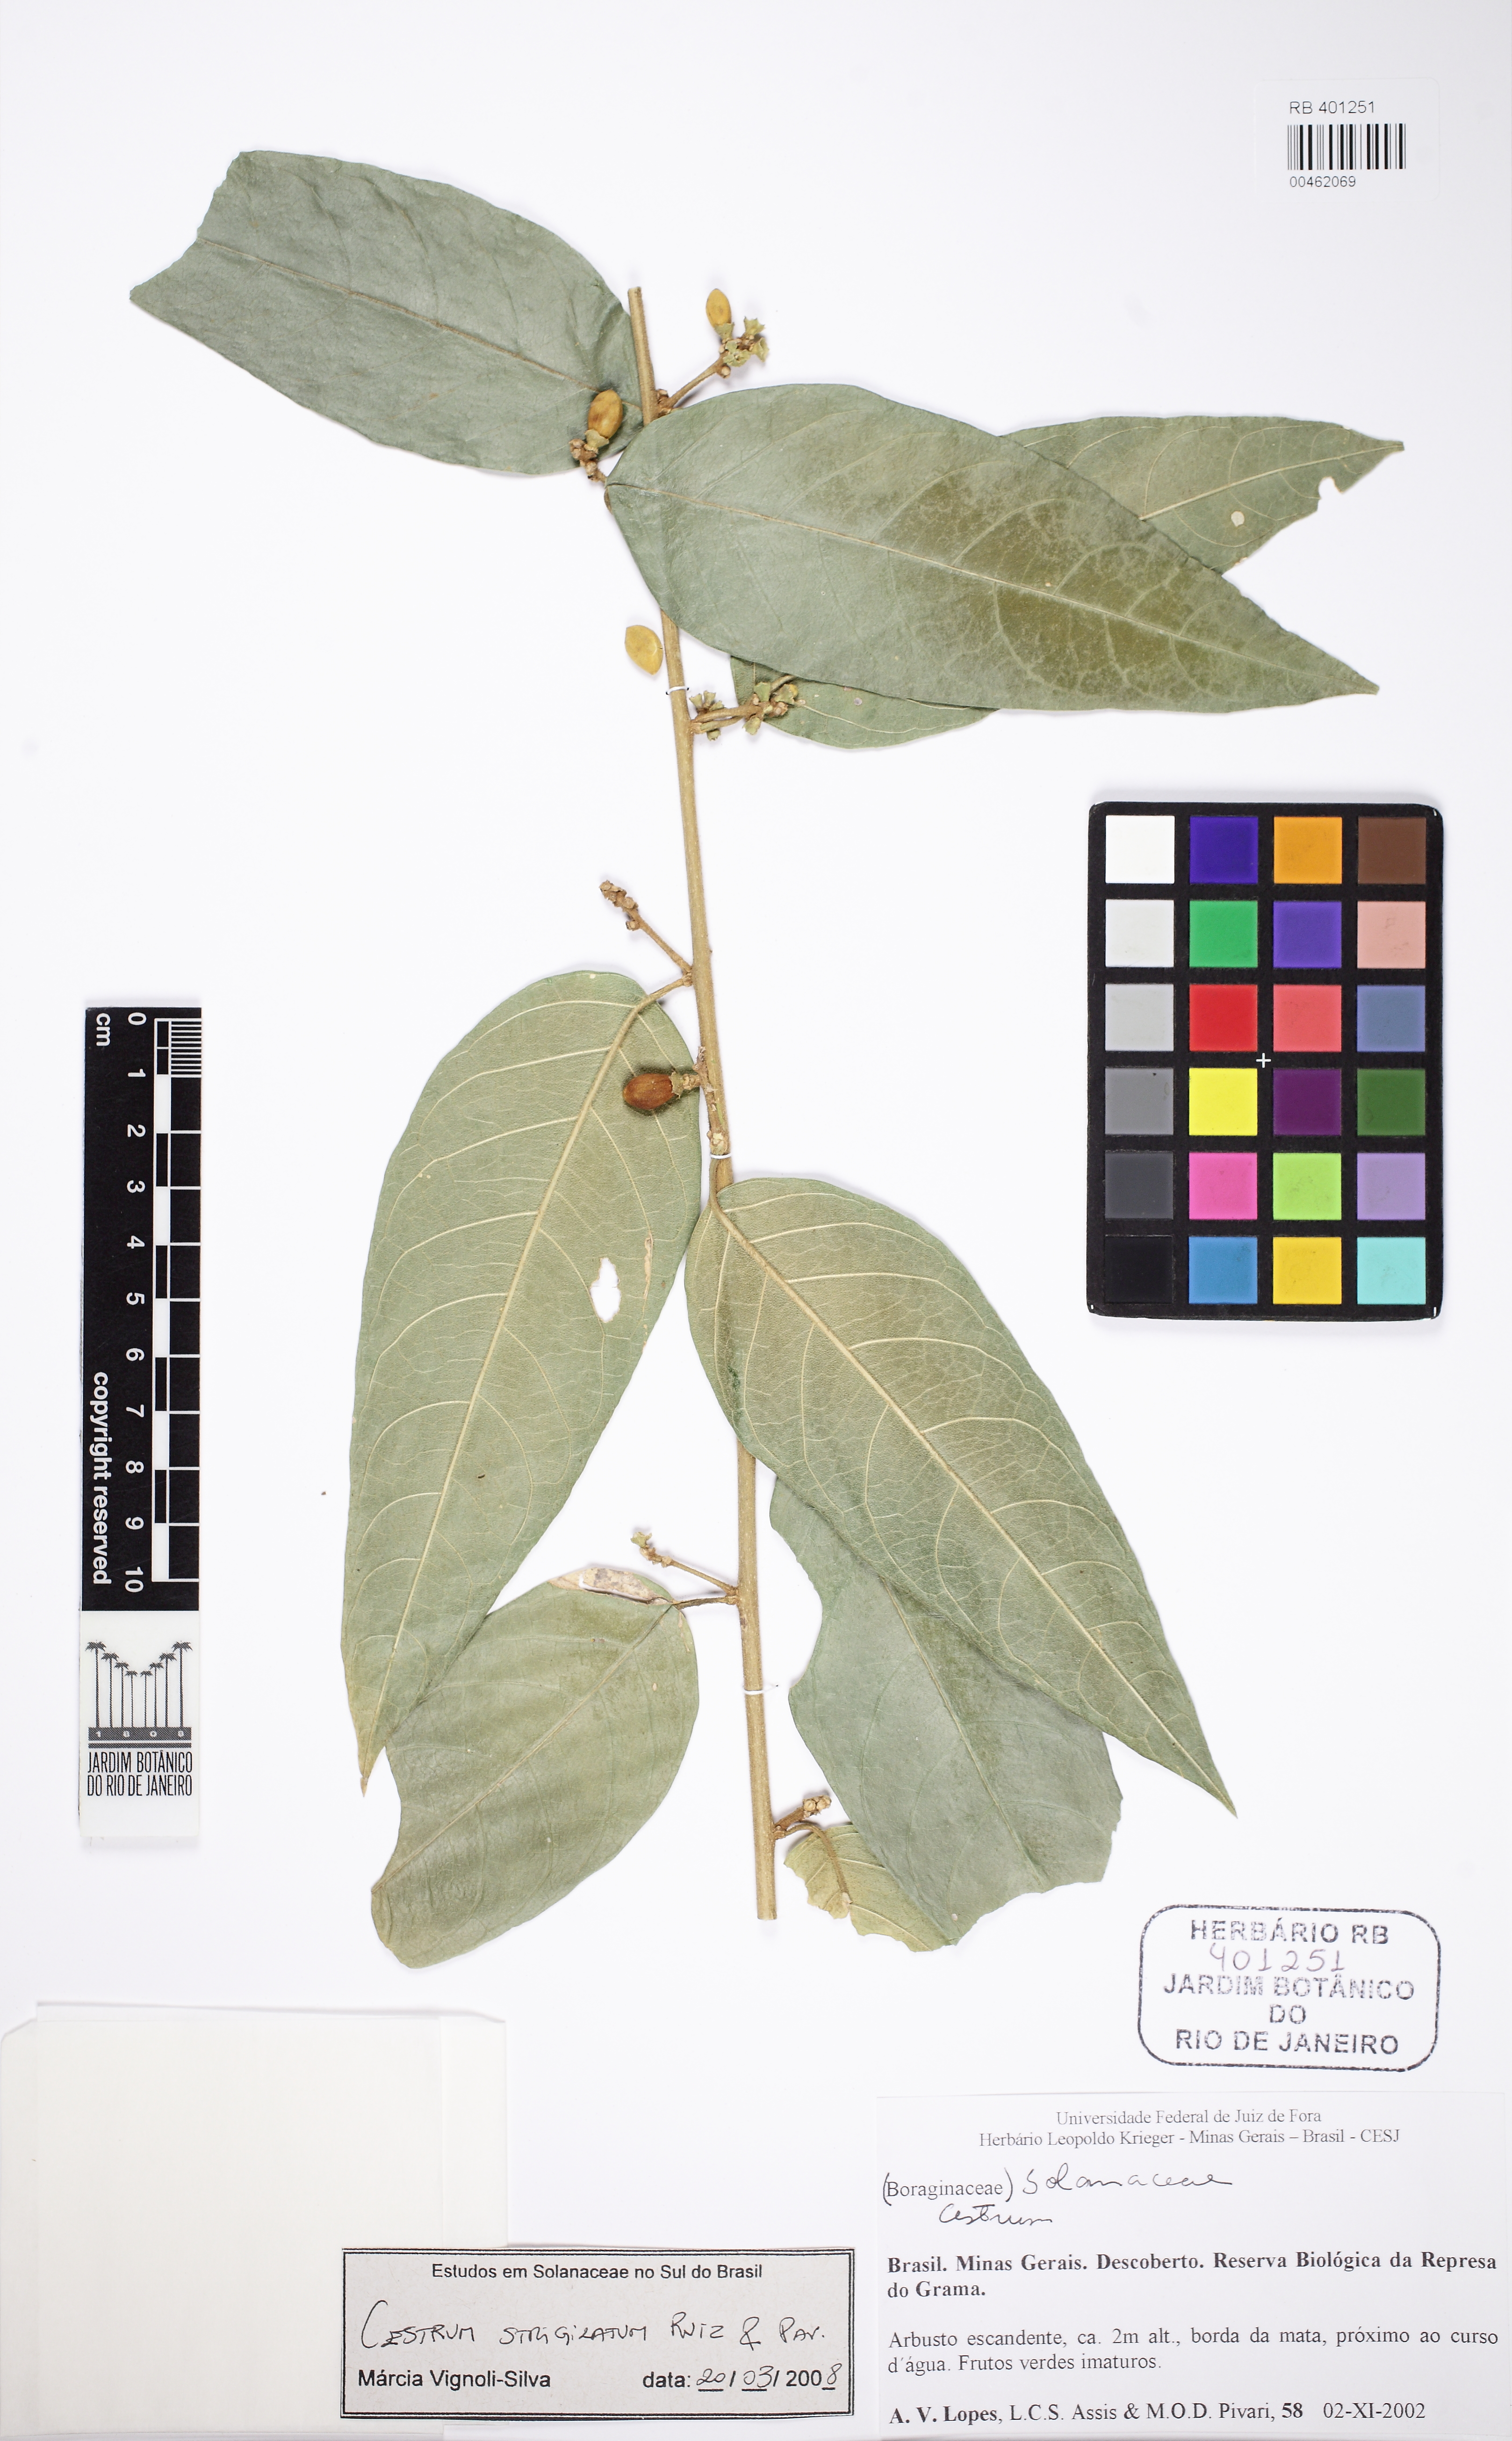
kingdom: Plantae
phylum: Tracheophyta
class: Magnoliopsida
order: Solanales
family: Solanaceae
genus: Cestrum
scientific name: Cestrum strigillatum
